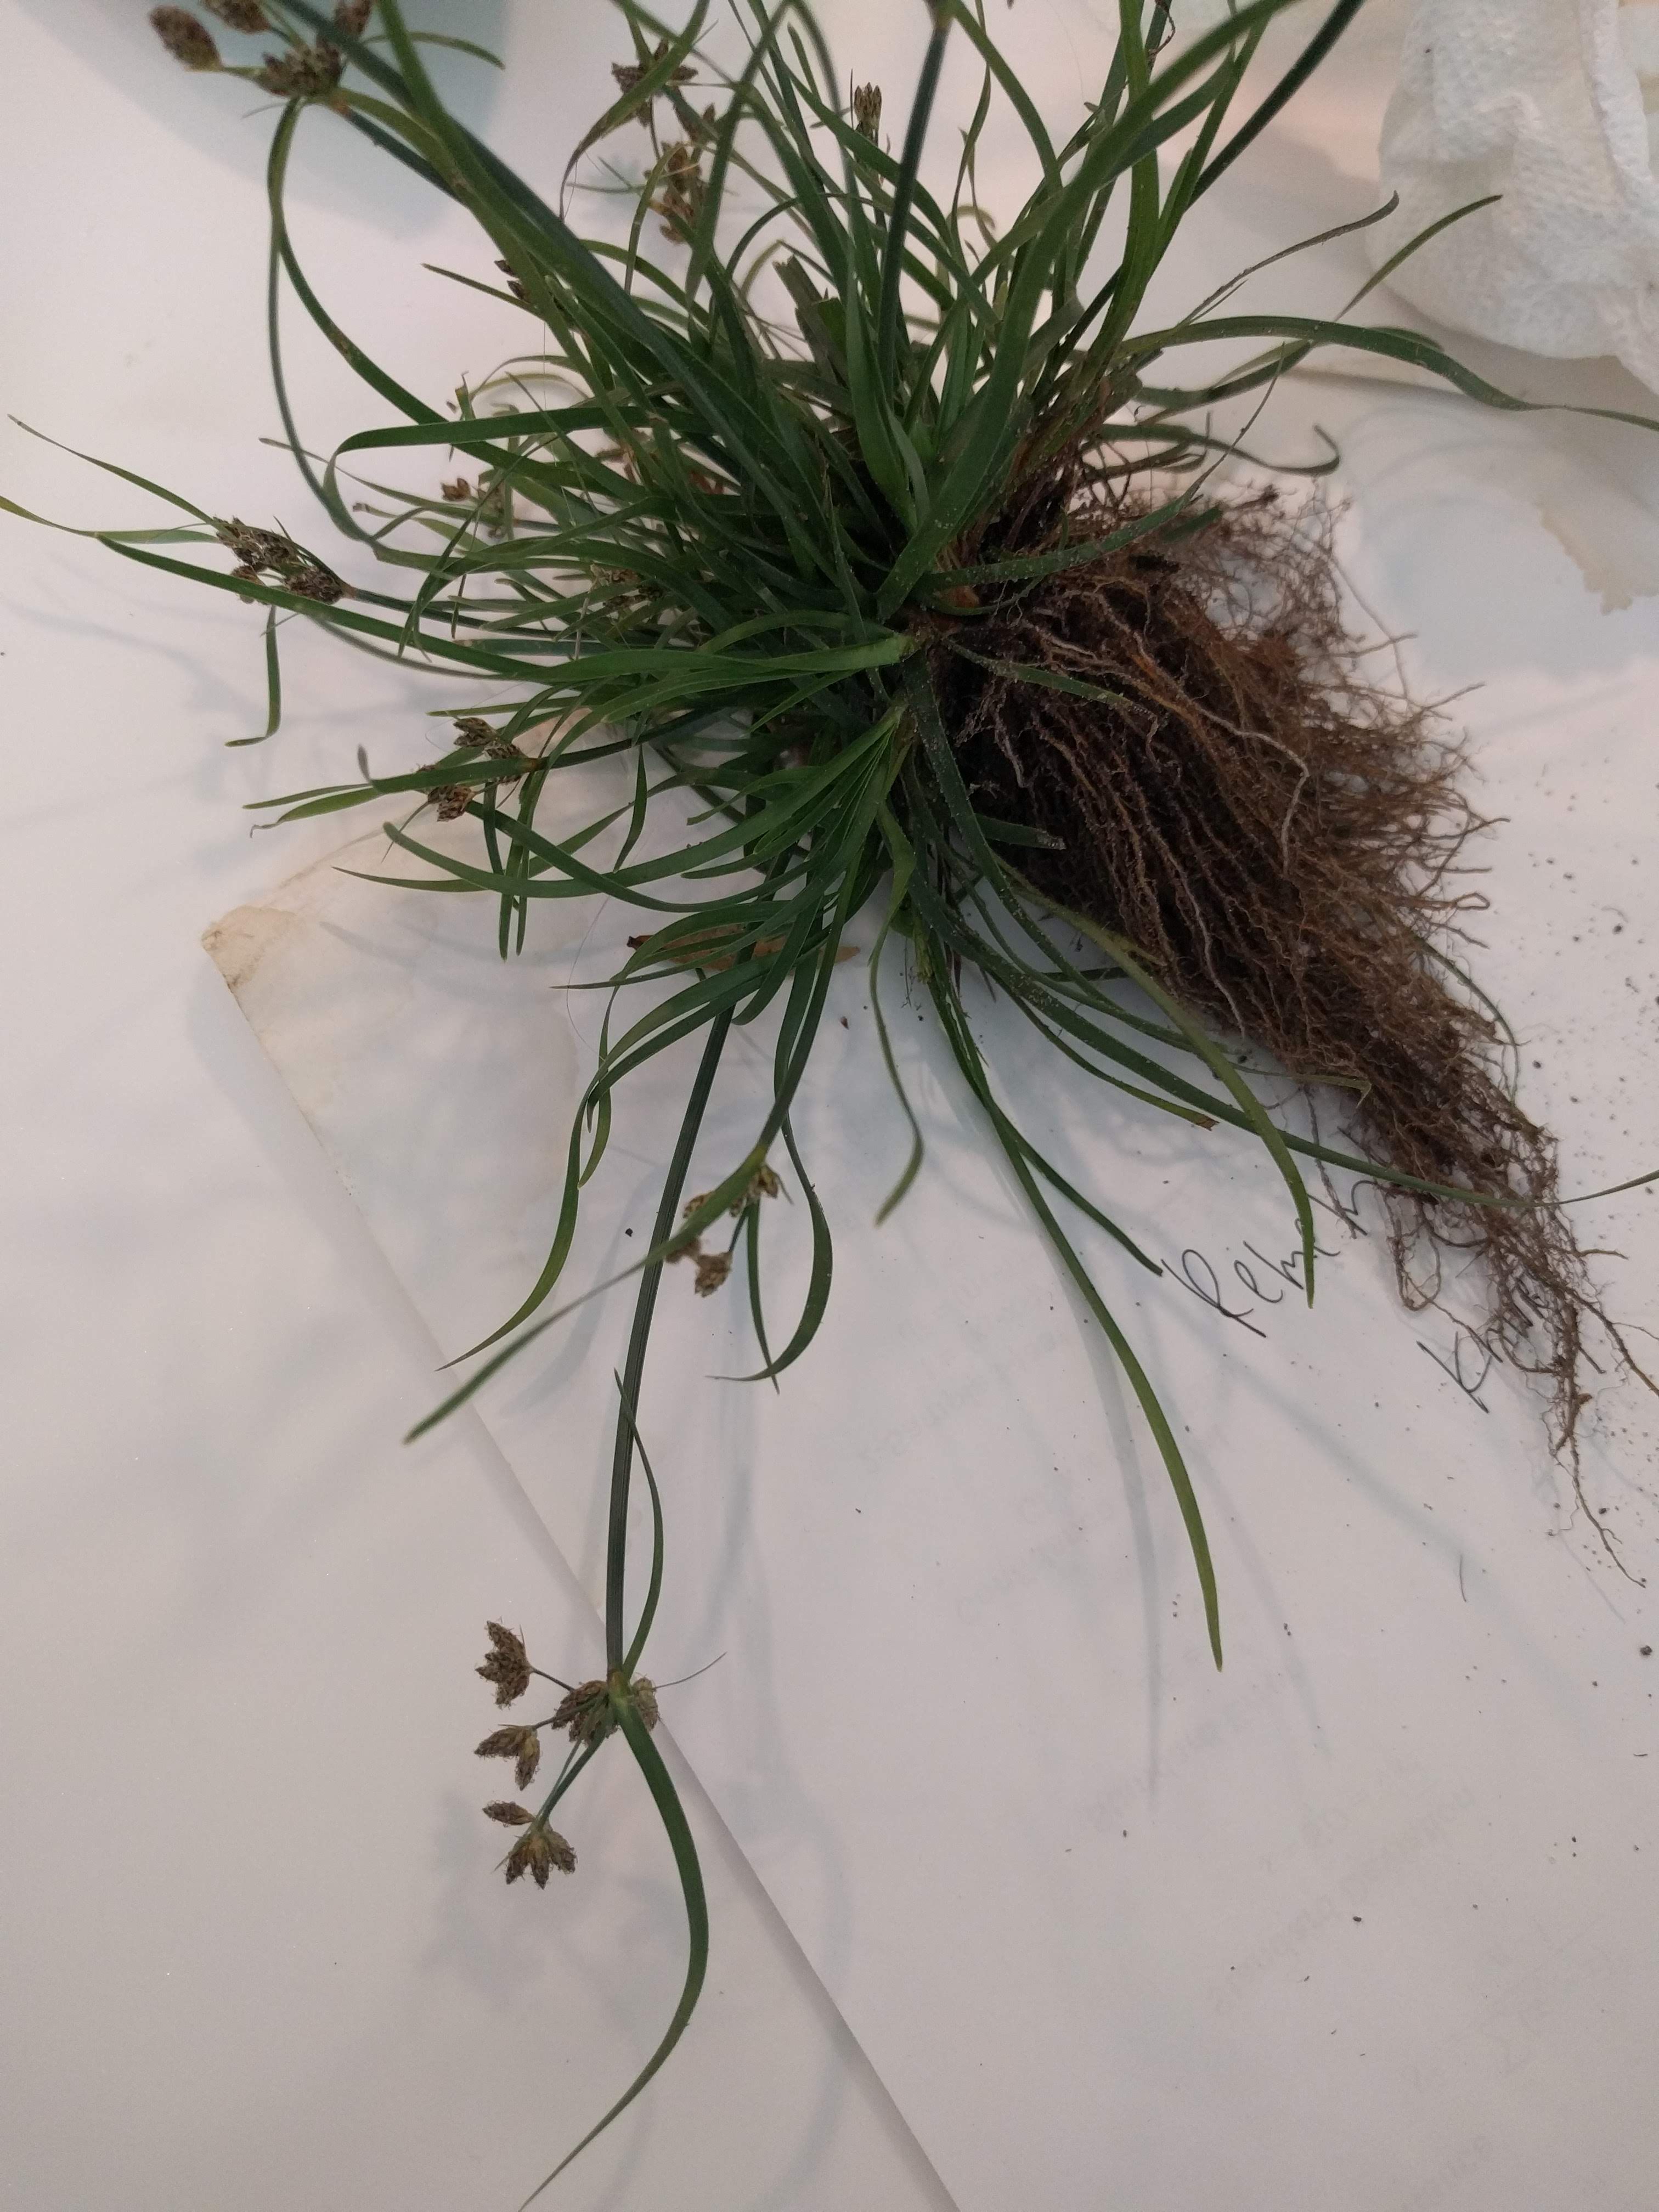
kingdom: Plantae
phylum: Tracheophyta
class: Liliopsida
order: Poales
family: Cyperaceae
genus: Fimbristylis
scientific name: Fimbristylis dichotoma
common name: Fimbry
